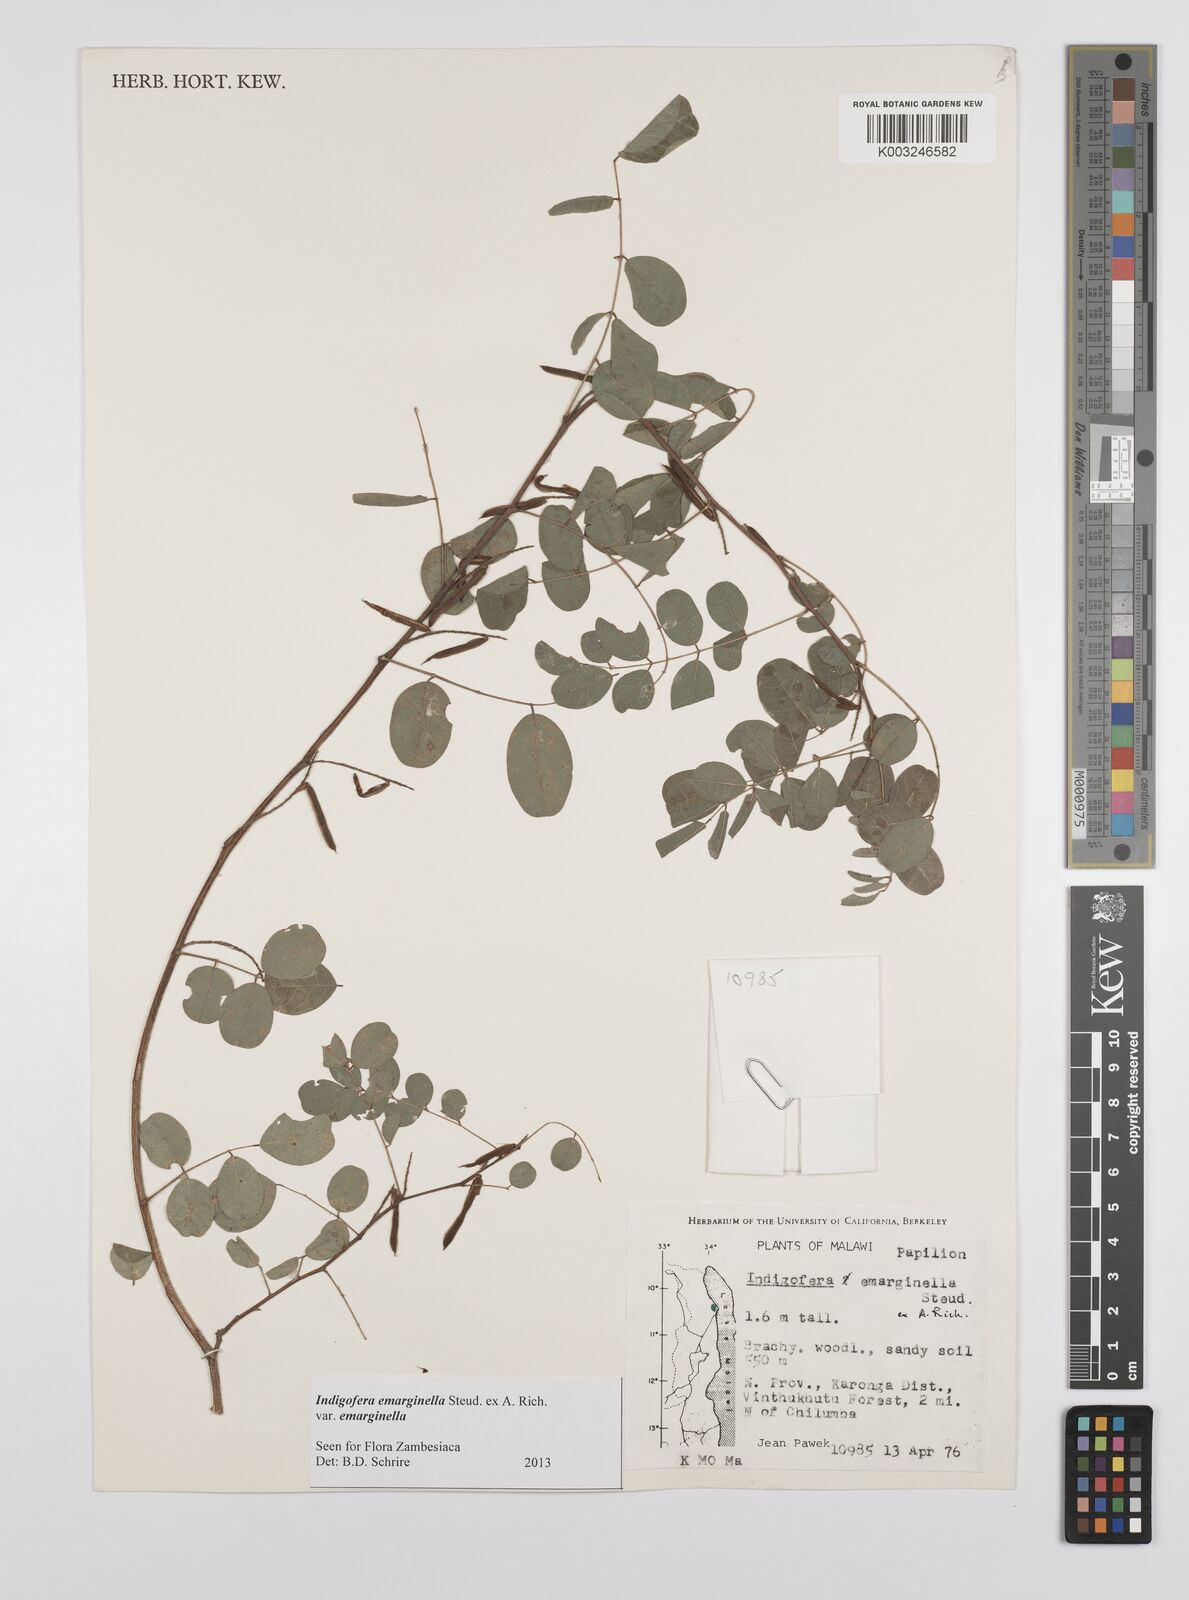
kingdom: Plantae
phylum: Tracheophyta
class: Magnoliopsida
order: Fabales
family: Fabaceae
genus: Indigofera
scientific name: Indigofera emarginella
